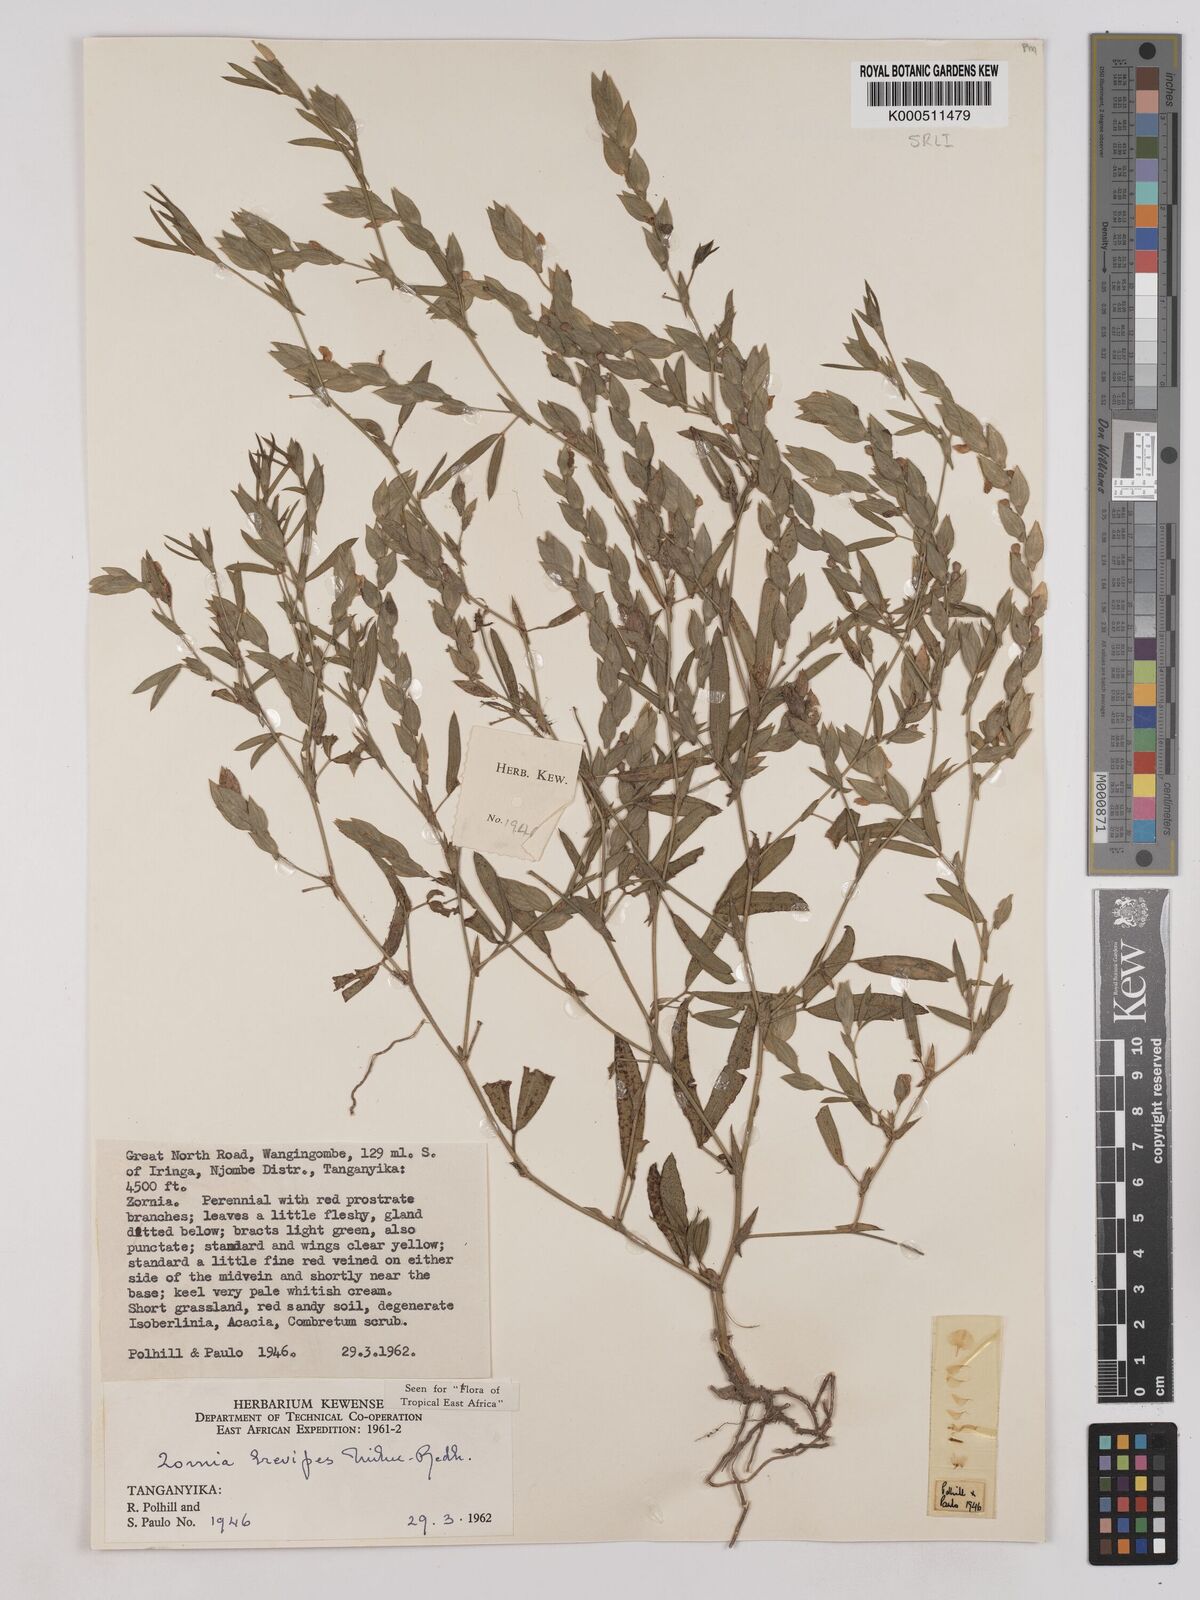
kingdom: Plantae
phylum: Tracheophyta
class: Magnoliopsida
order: Fabales
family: Fabaceae
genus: Zornia
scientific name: Zornia brevipes
